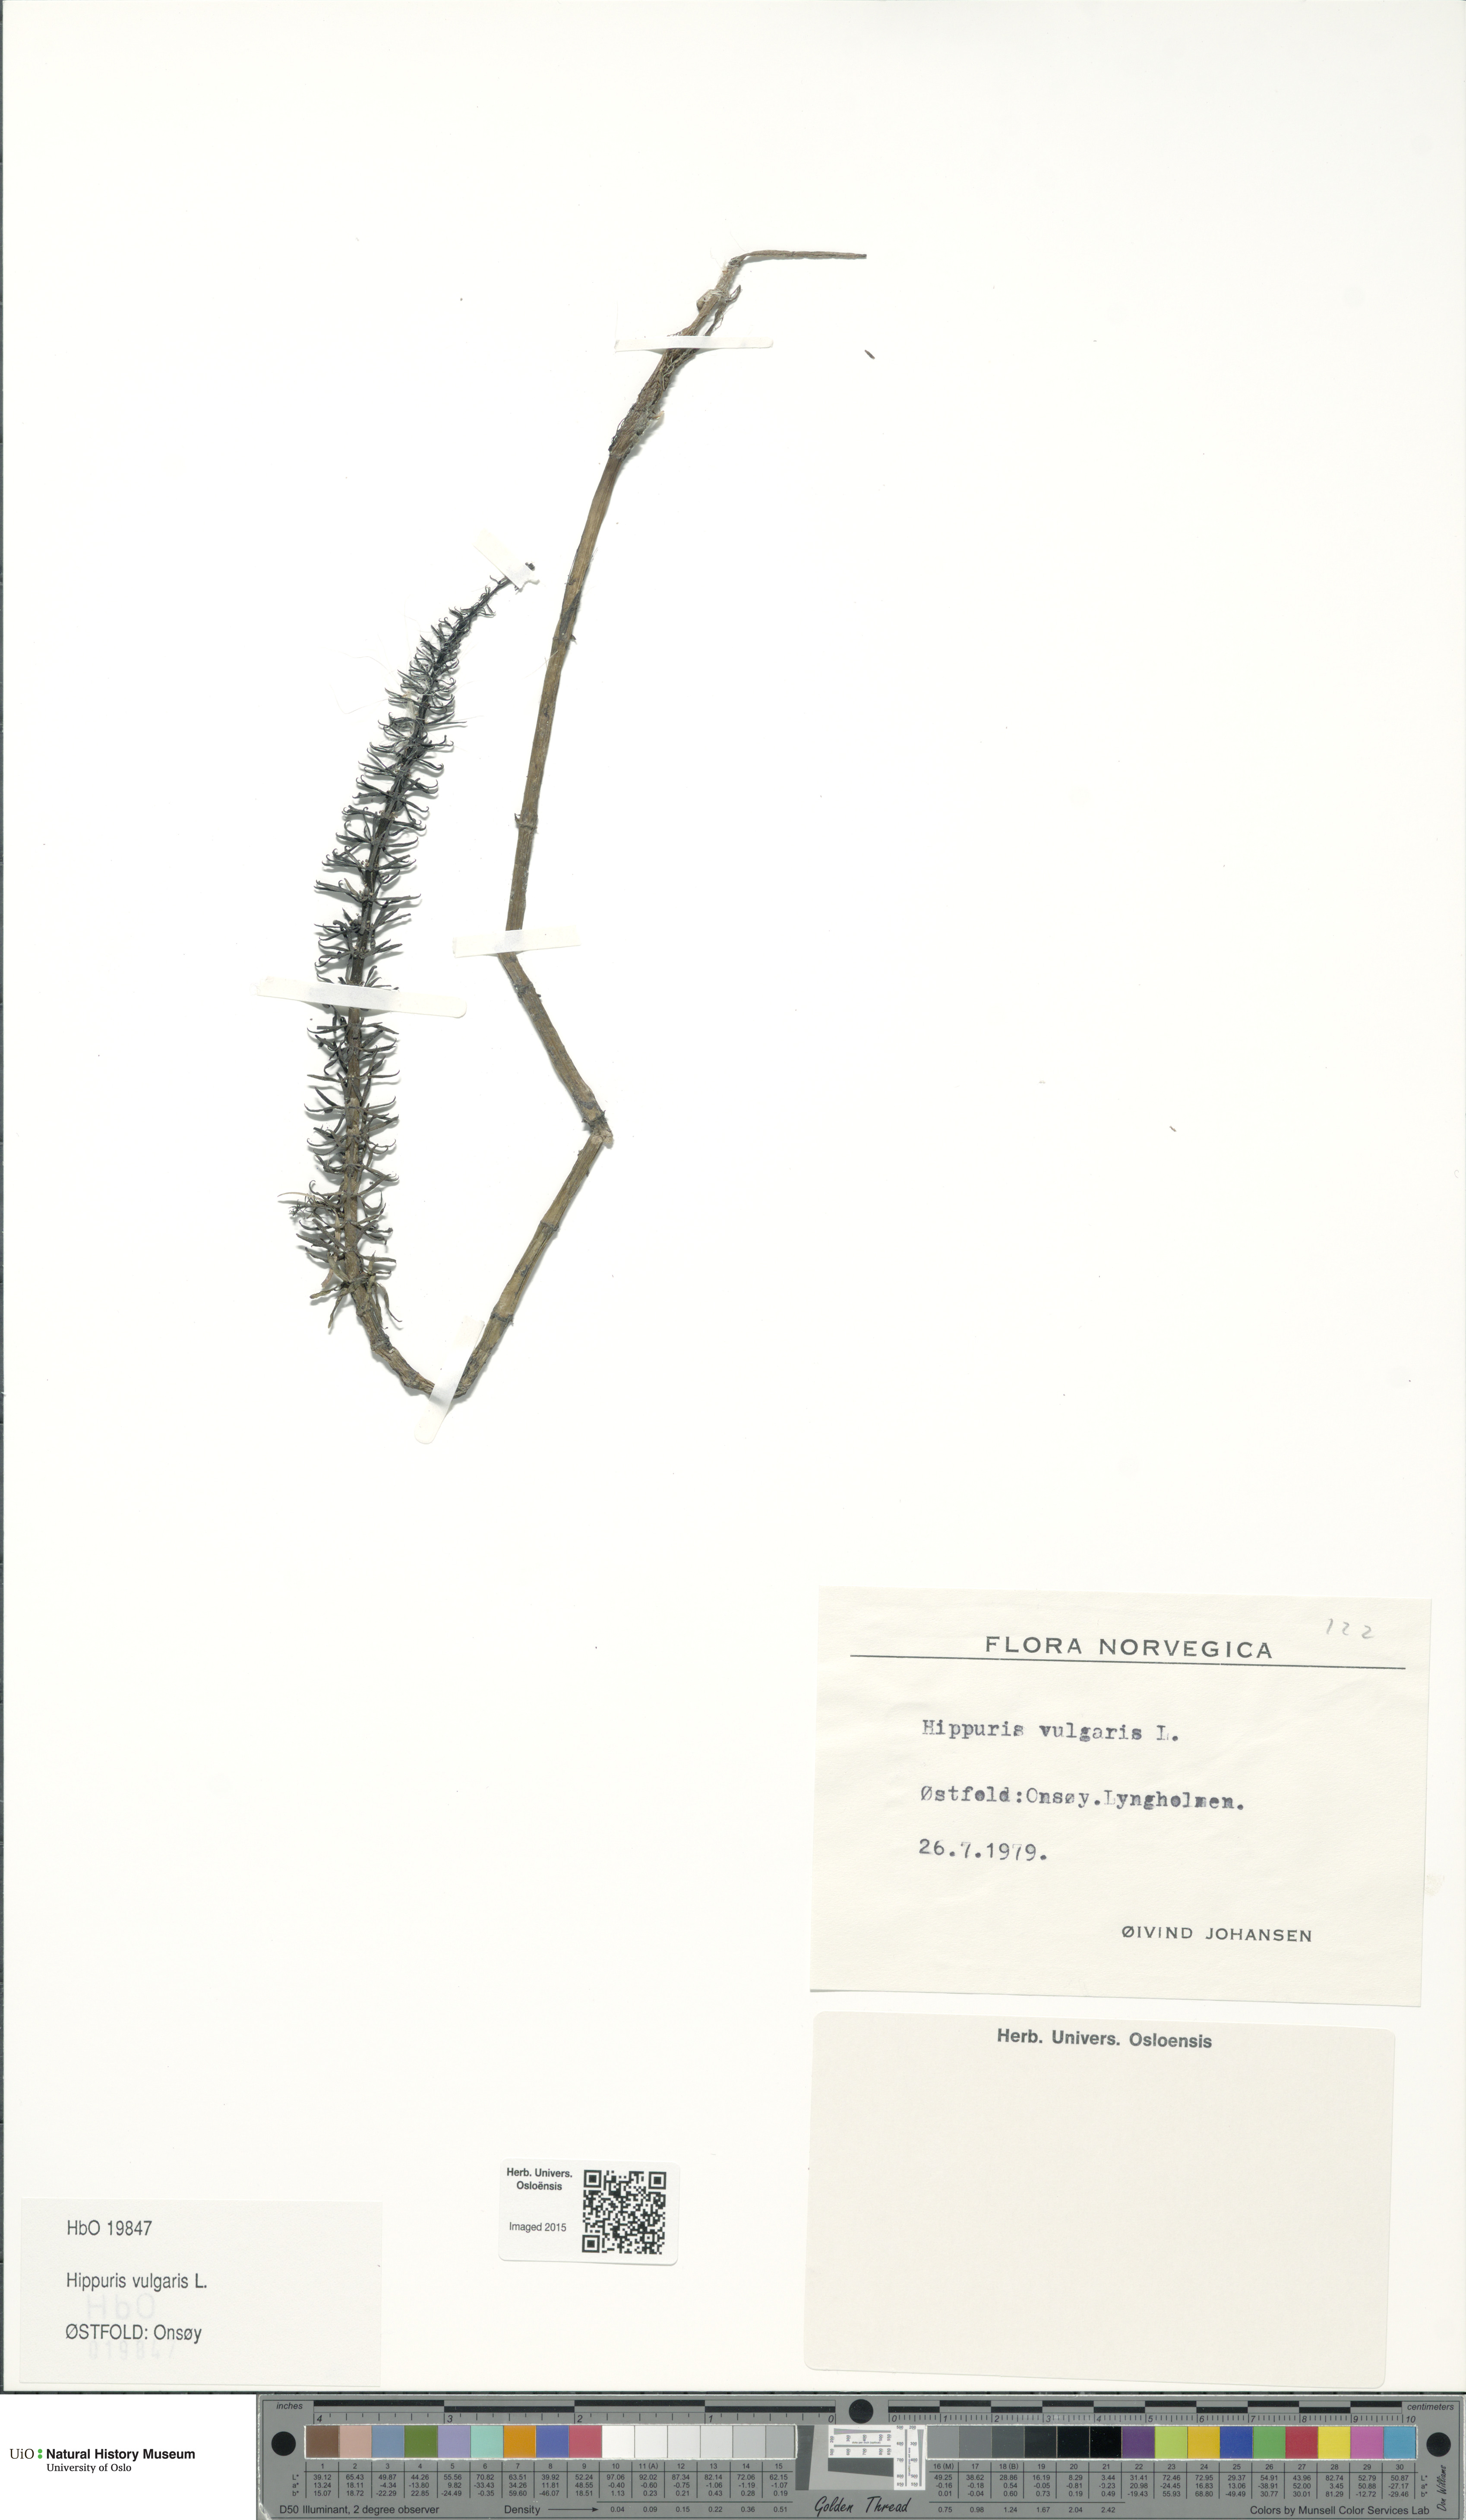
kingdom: Plantae
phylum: Tracheophyta
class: Magnoliopsida
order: Lamiales
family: Plantaginaceae
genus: Hippuris
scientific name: Hippuris vulgaris
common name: Mare's-tail
